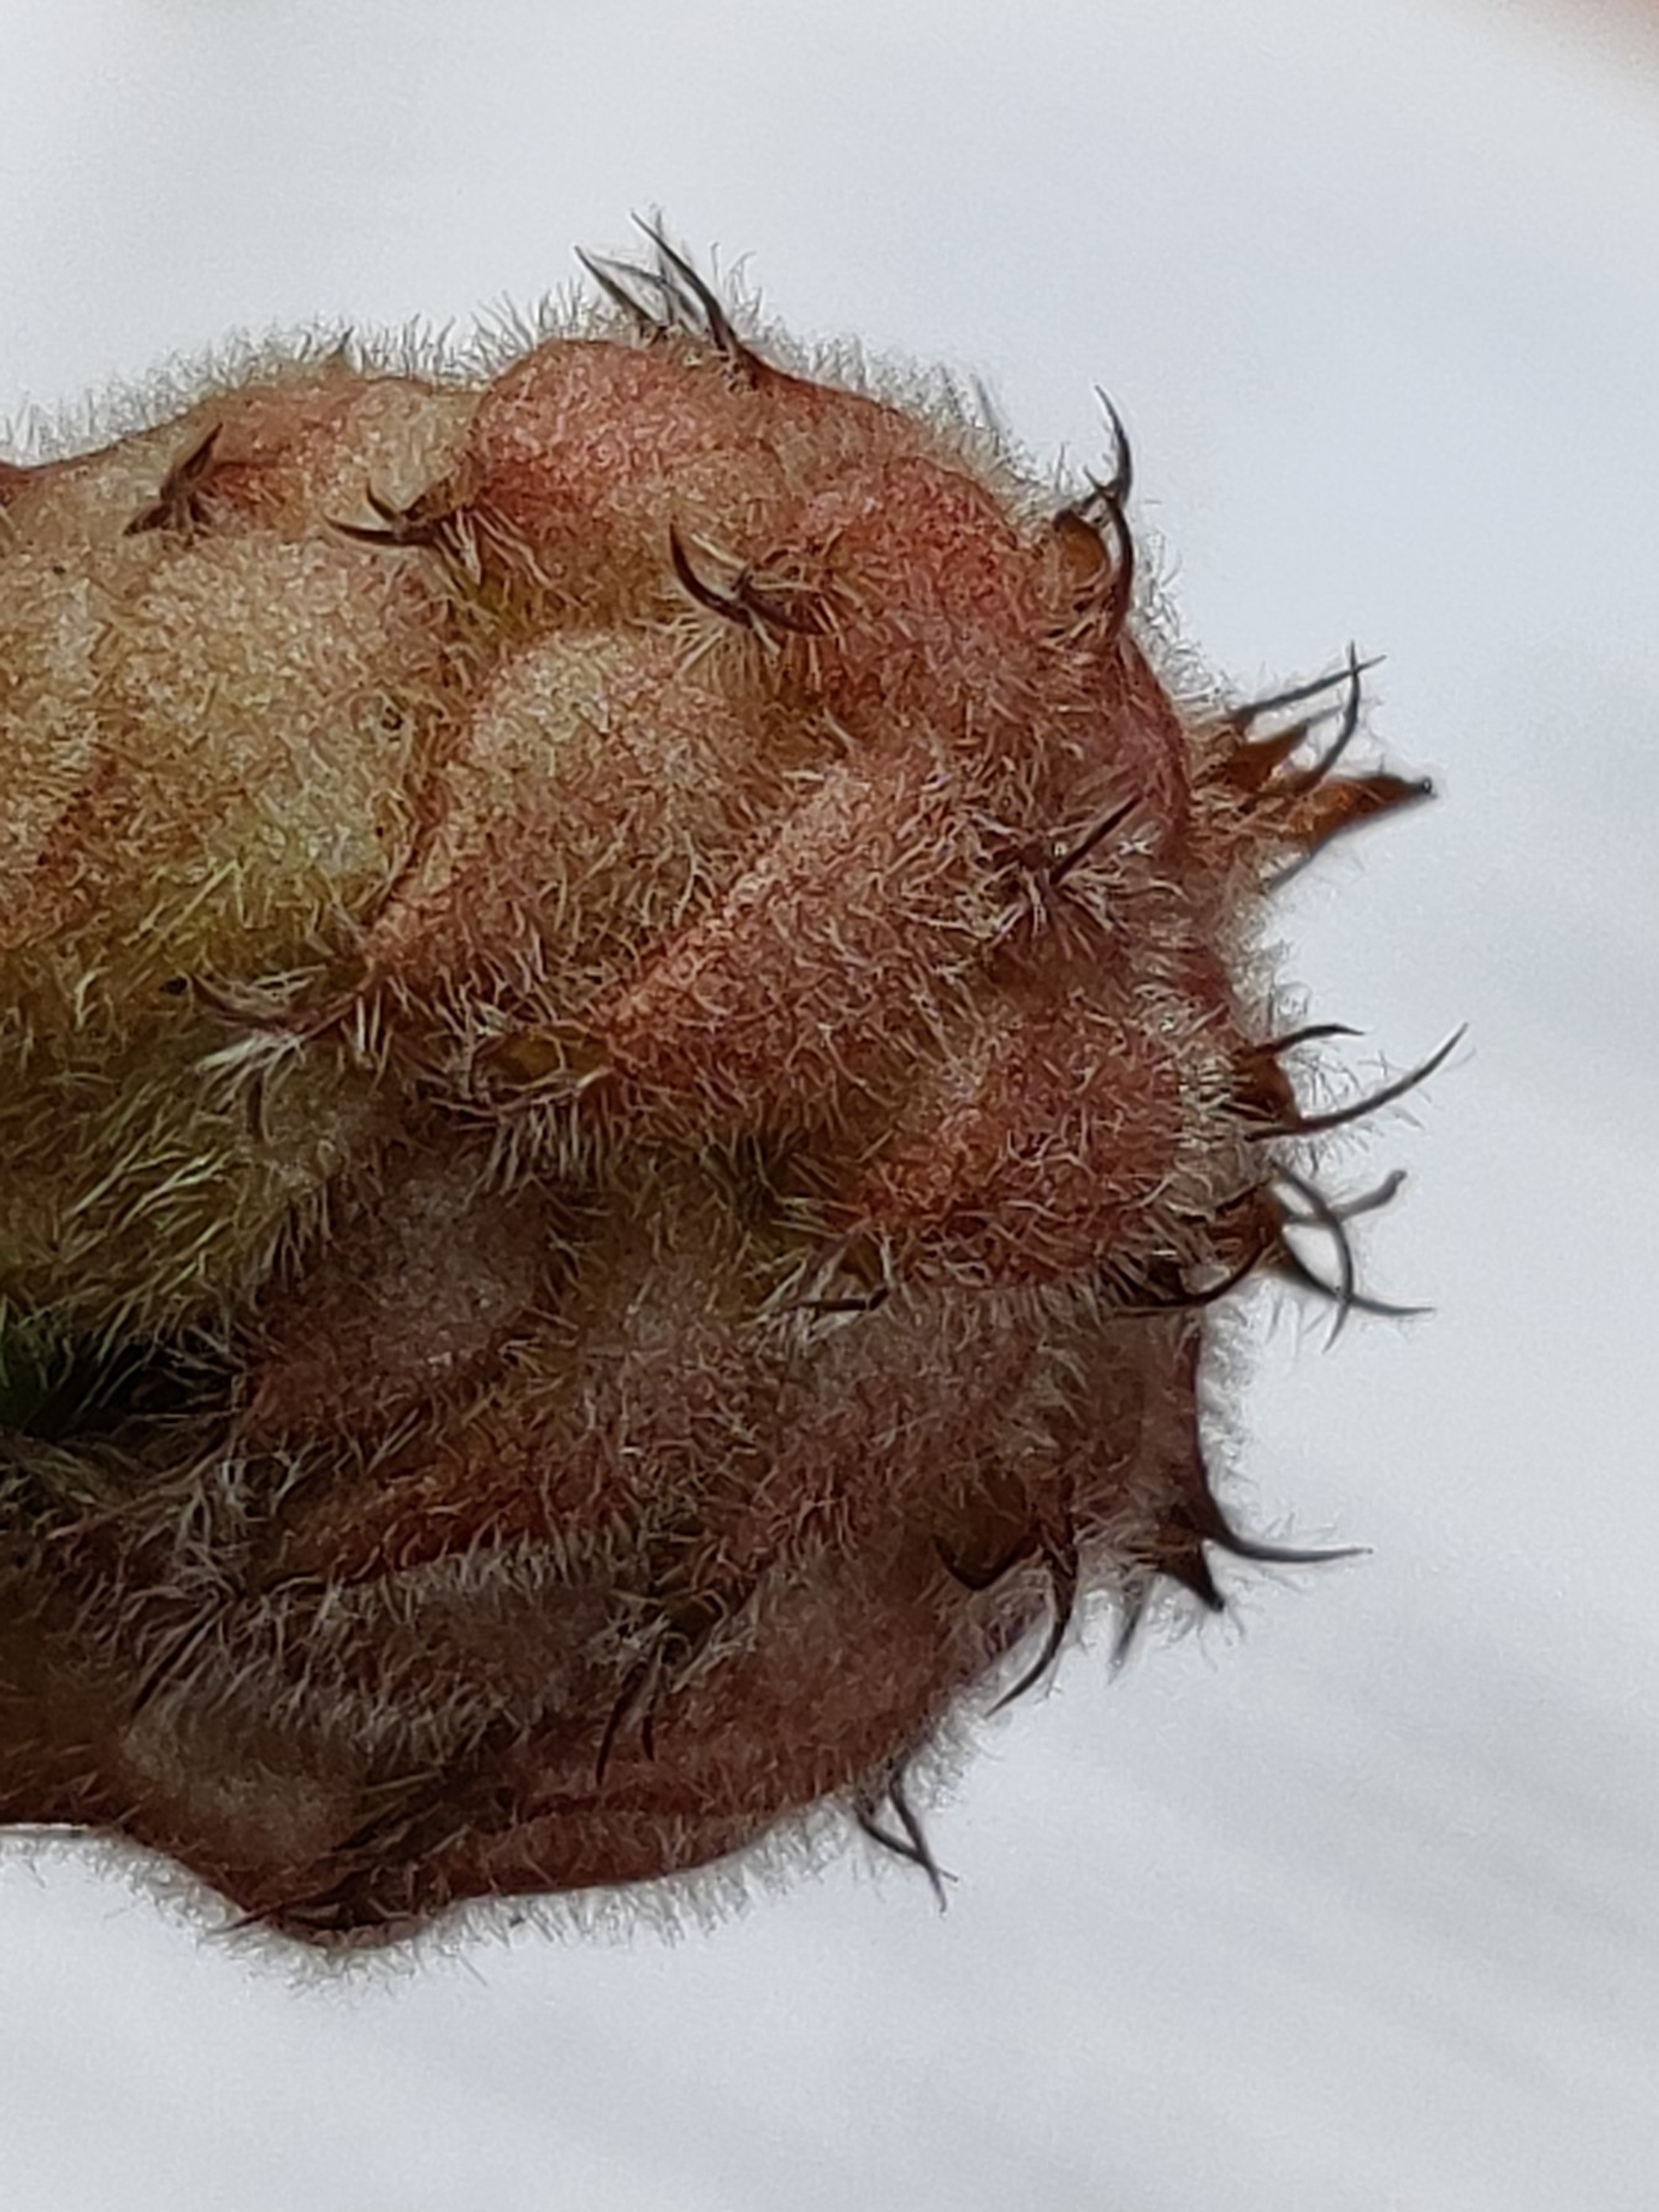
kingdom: Plantae
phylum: Tracheophyta
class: Magnoliopsida
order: Fabales
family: Fabaceae
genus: Trifolium
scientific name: Trifolium fragiferum
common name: Jordbær-kløver
